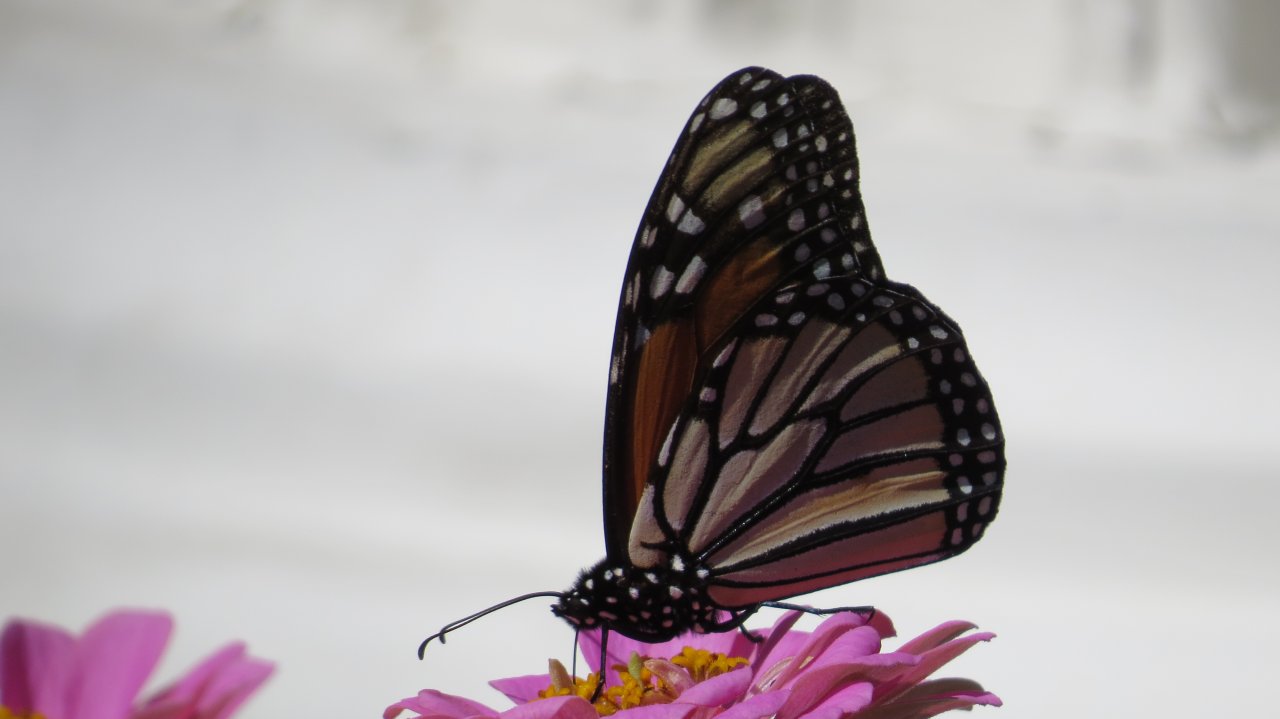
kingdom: Animalia
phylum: Arthropoda
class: Insecta
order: Lepidoptera
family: Nymphalidae
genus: Danaus
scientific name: Danaus plexippus
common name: Monarch
